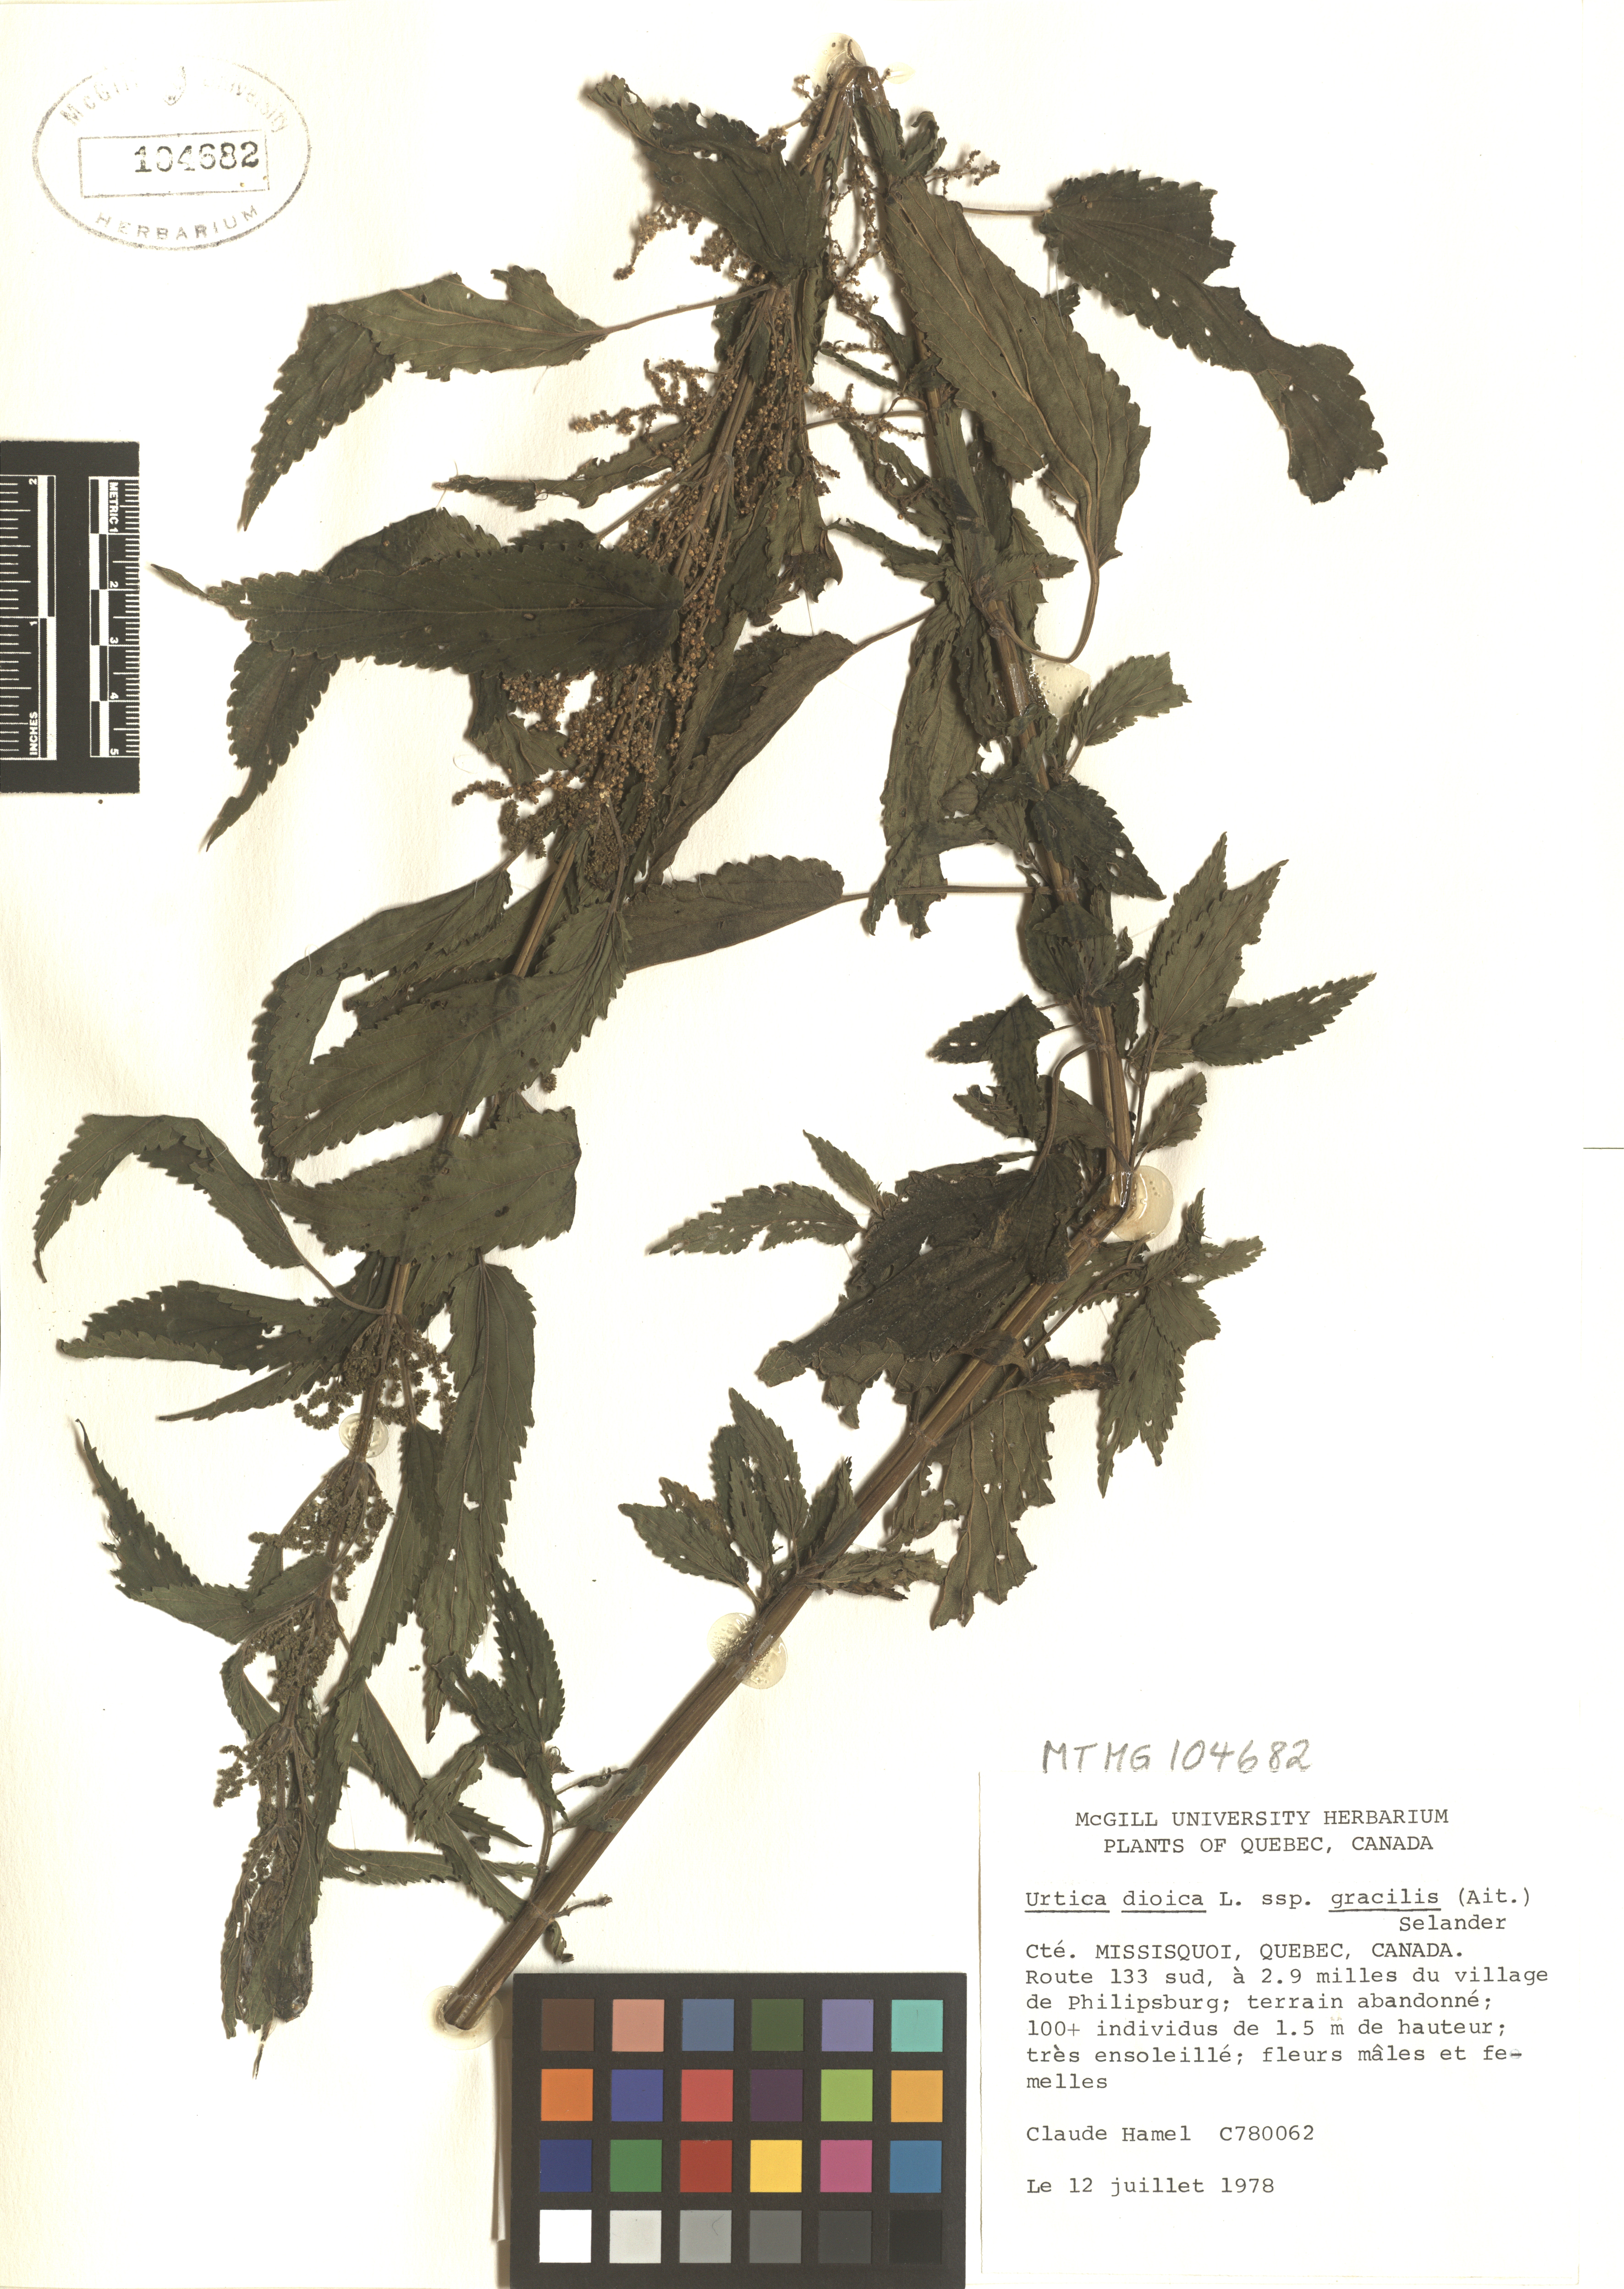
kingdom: Plantae
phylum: Tracheophyta
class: Magnoliopsida
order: Rosales
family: Urticaceae
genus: Urtica
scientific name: Urtica gracilis
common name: Slender stinging nettle
